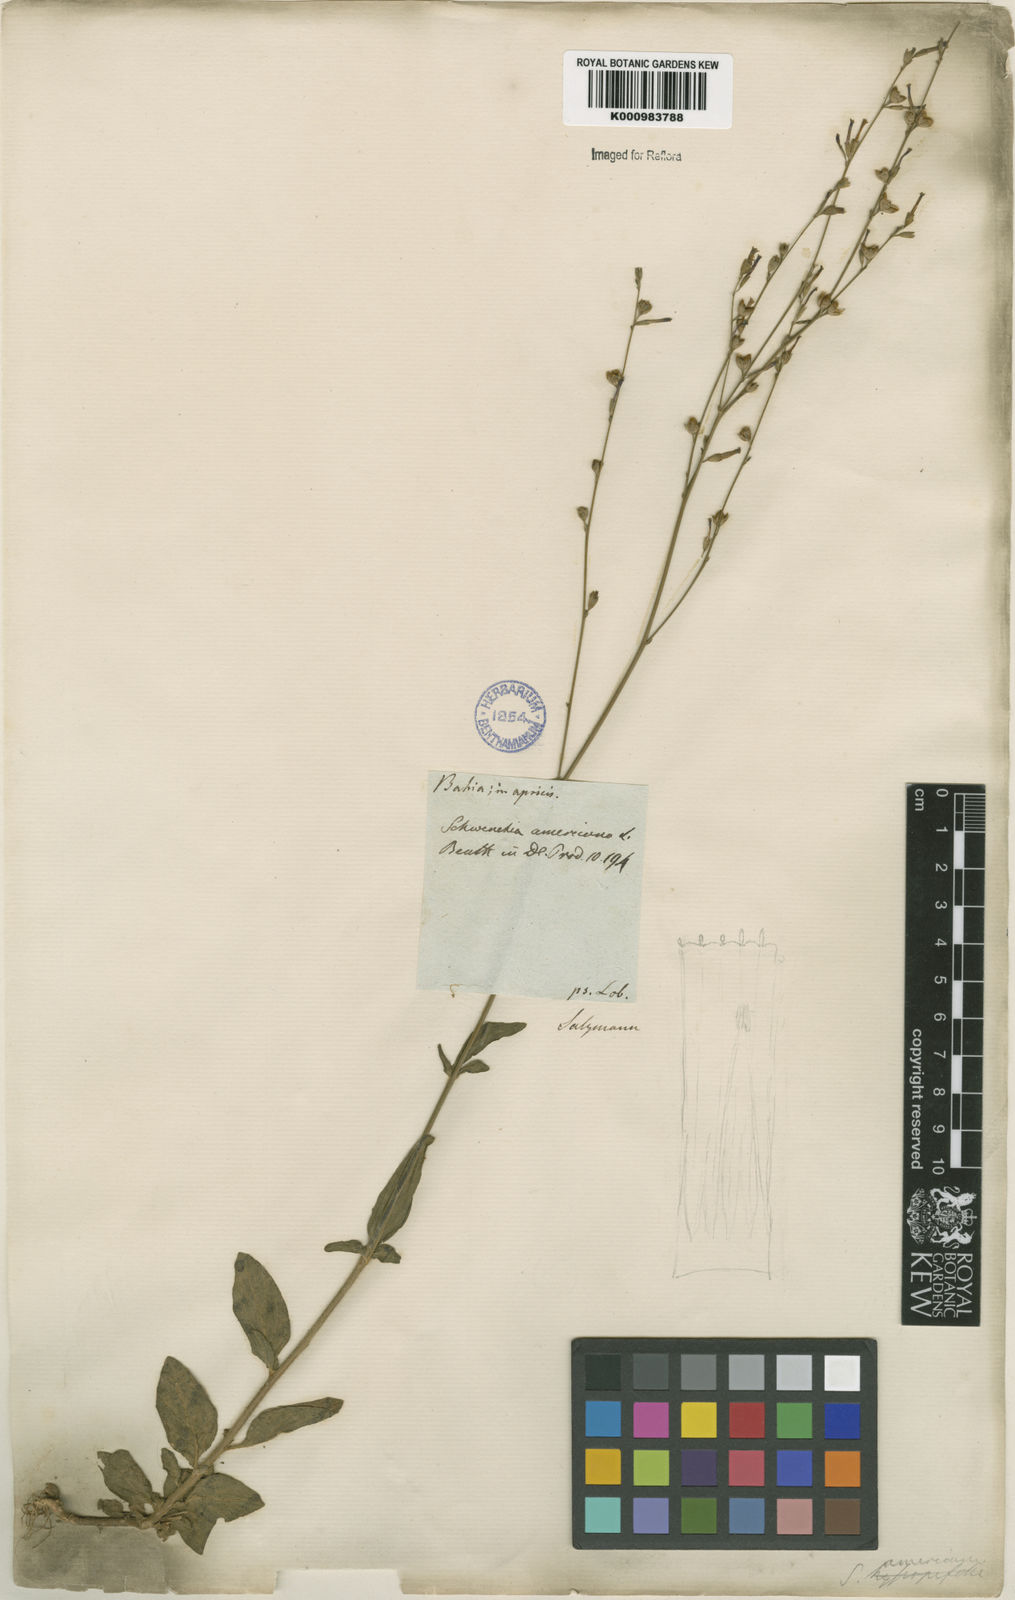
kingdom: Plantae
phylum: Tracheophyta
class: Magnoliopsida
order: Solanales
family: Solanaceae
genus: Schwenckia
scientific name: Schwenckia americana
